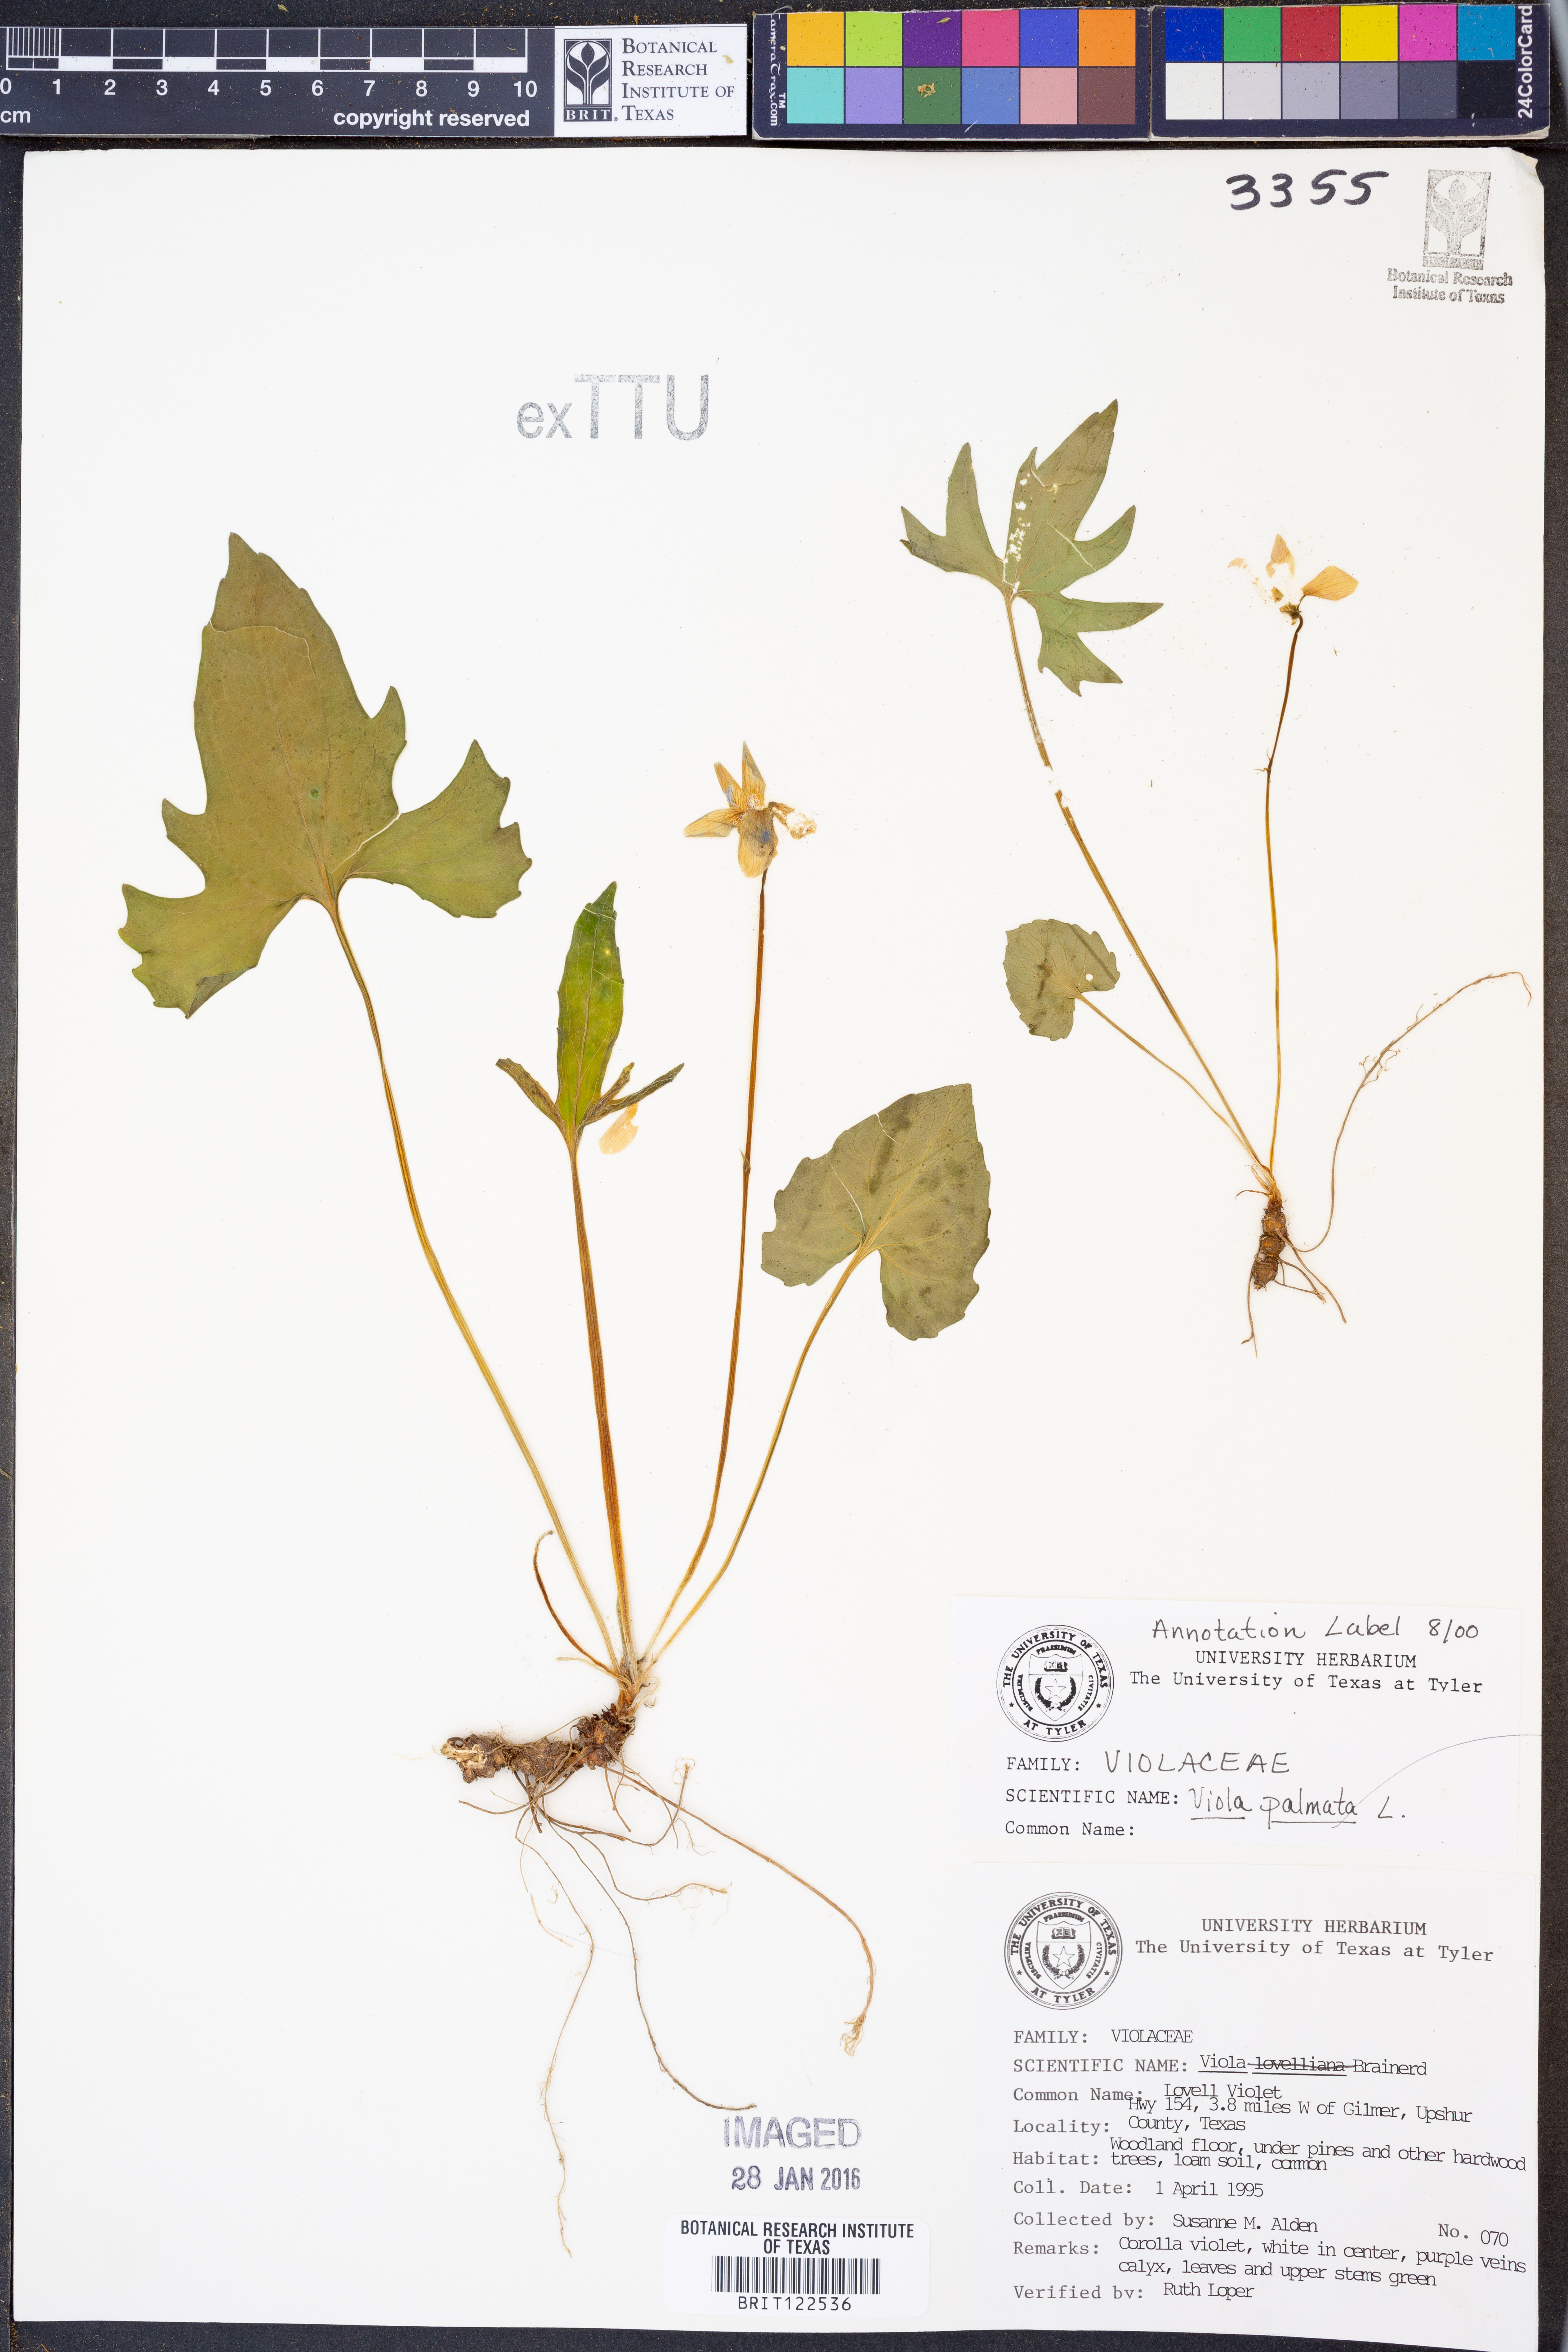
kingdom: Plantae
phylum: Tracheophyta
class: Magnoliopsida
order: Malpighiales
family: Violaceae
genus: Viola
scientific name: Viola palmata
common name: Early blue violet
